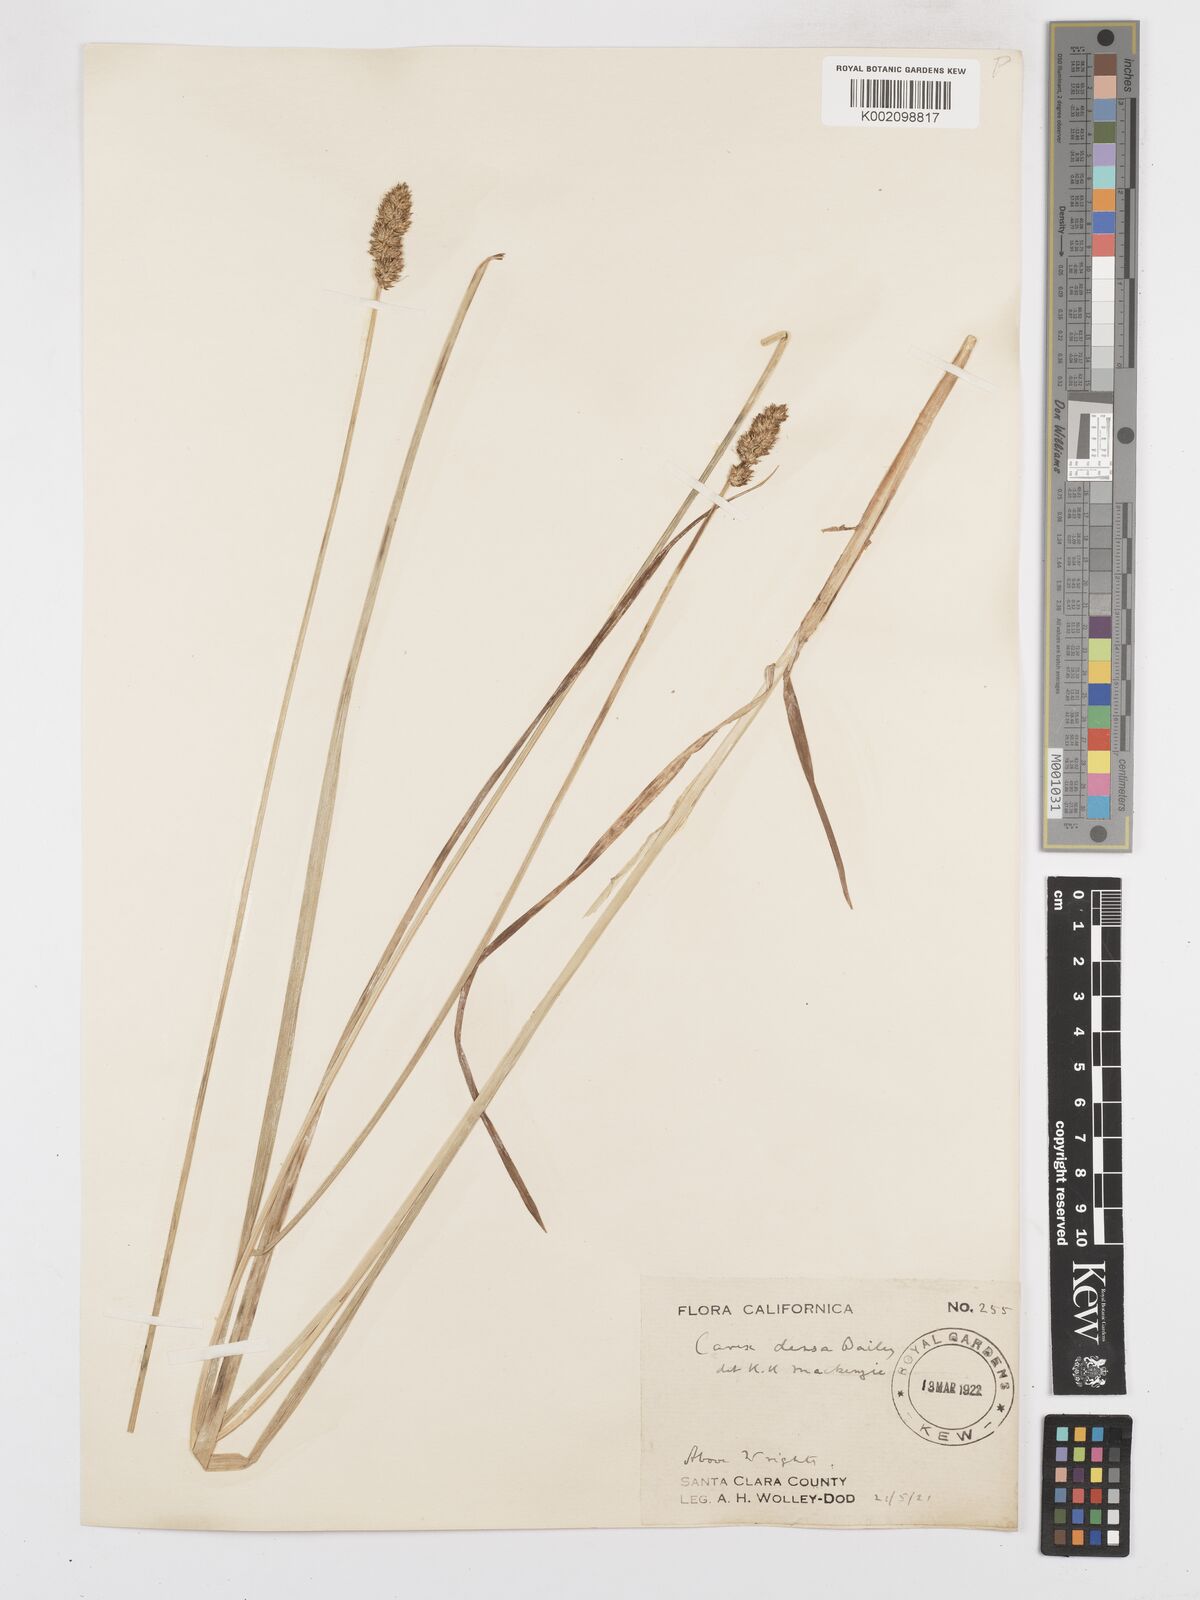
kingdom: Plantae
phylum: Tracheophyta
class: Liliopsida
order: Poales
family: Cyperaceae
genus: Carex
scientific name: Carex densa
